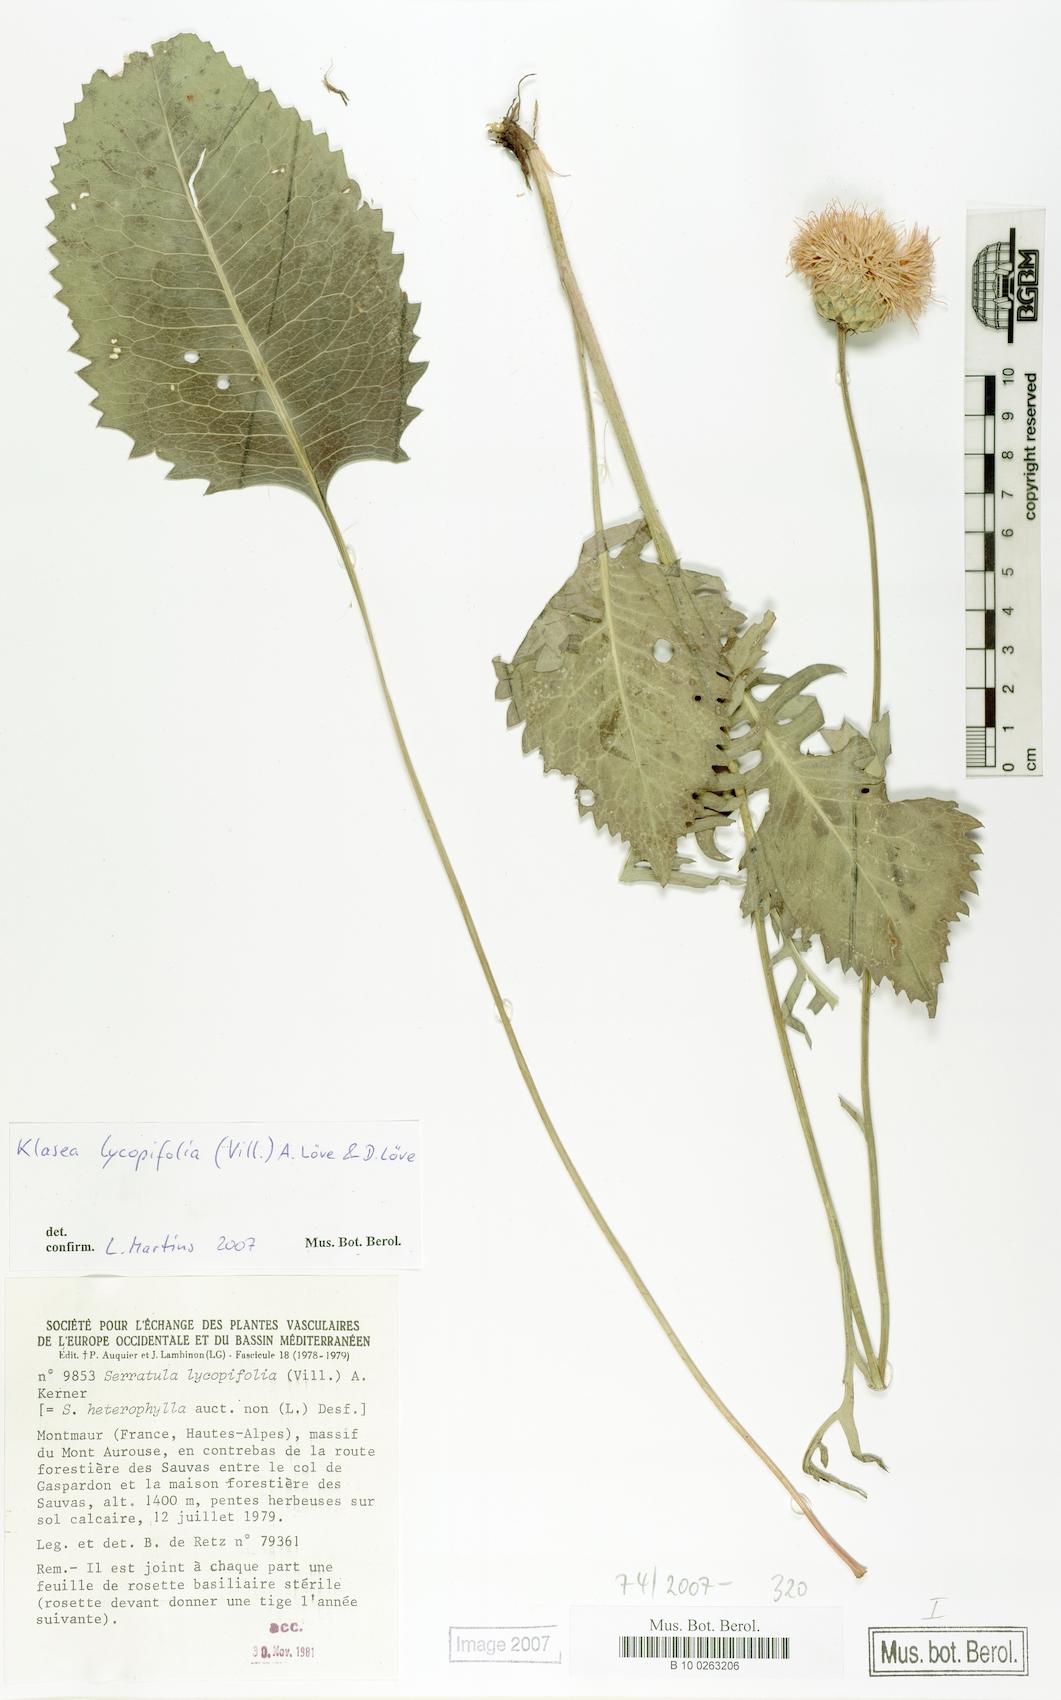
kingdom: Plantae
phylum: Tracheophyta
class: Magnoliopsida
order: Asterales
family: Asteraceae
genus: Klasea
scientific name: Klasea lycopifolia
